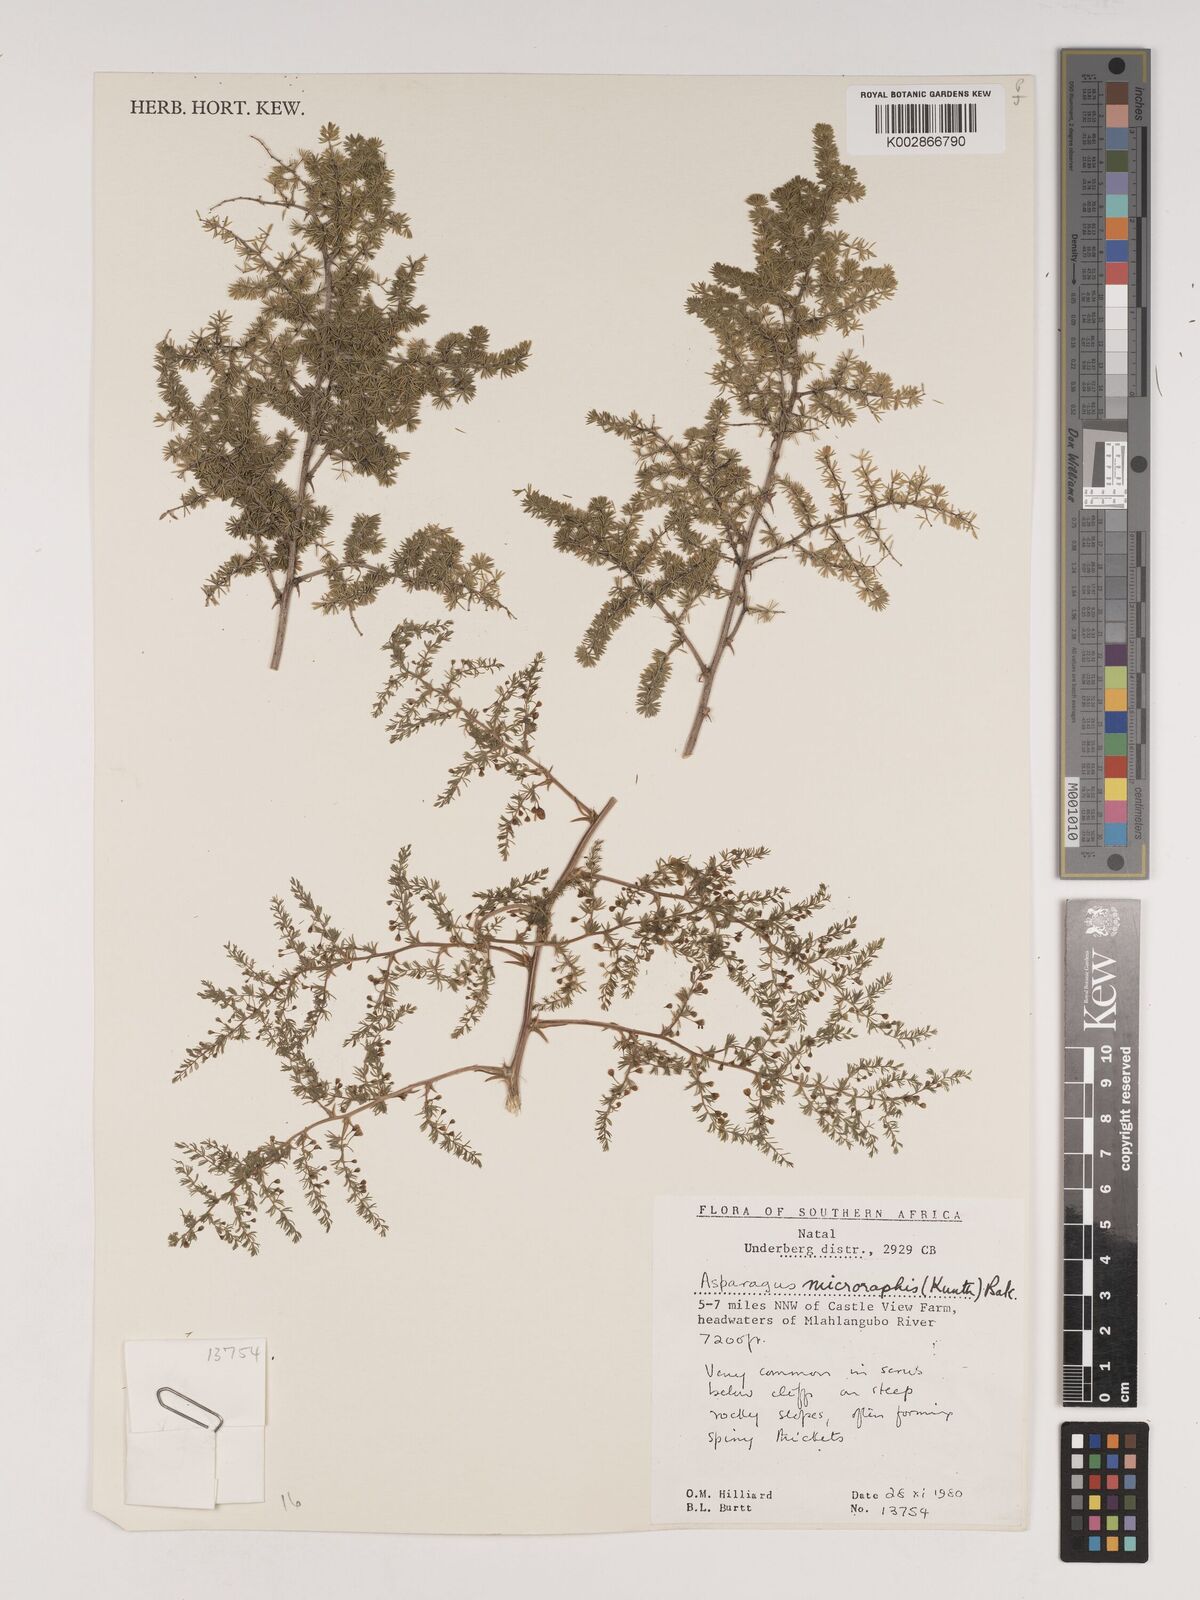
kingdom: Plantae
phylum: Tracheophyta
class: Liliopsida
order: Asparagales
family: Asparagaceae
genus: Asparagus
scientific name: Asparagus microraphis
